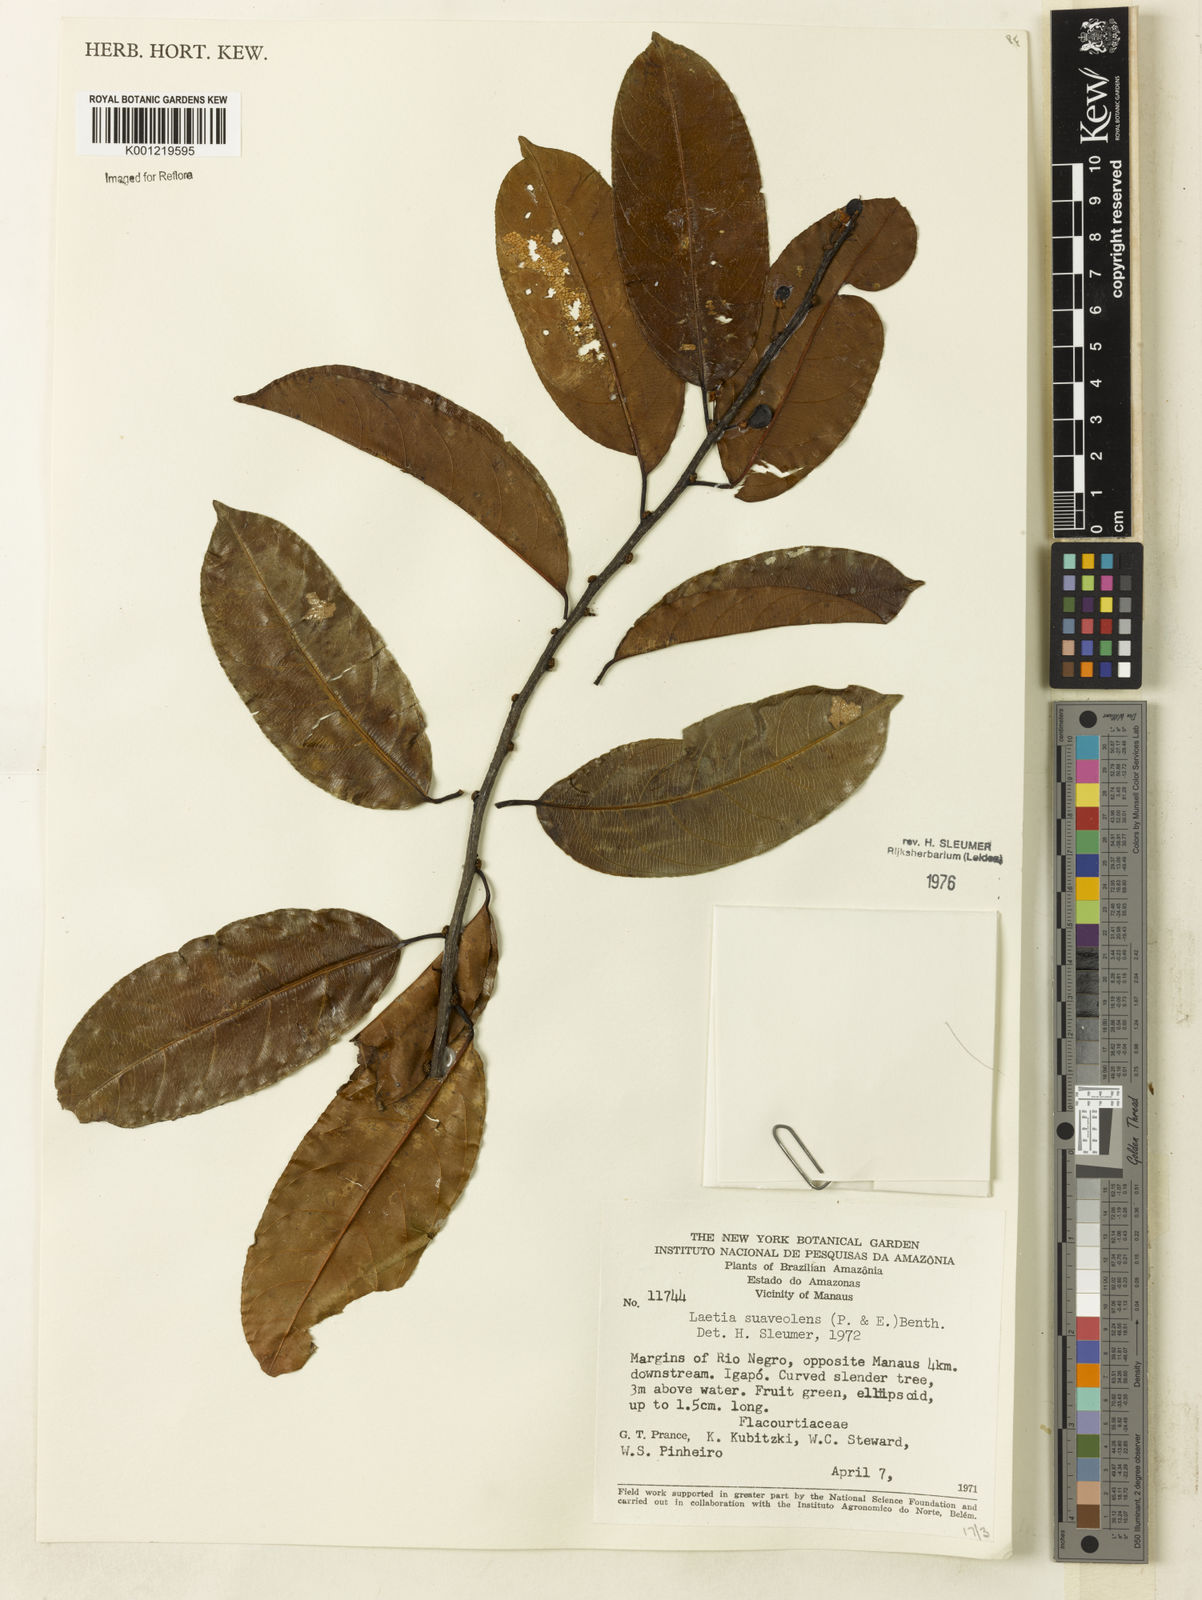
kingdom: Plantae
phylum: Tracheophyta
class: Magnoliopsida
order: Malpighiales
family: Salicaceae
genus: Casearia
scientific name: Casearia suaveolens
